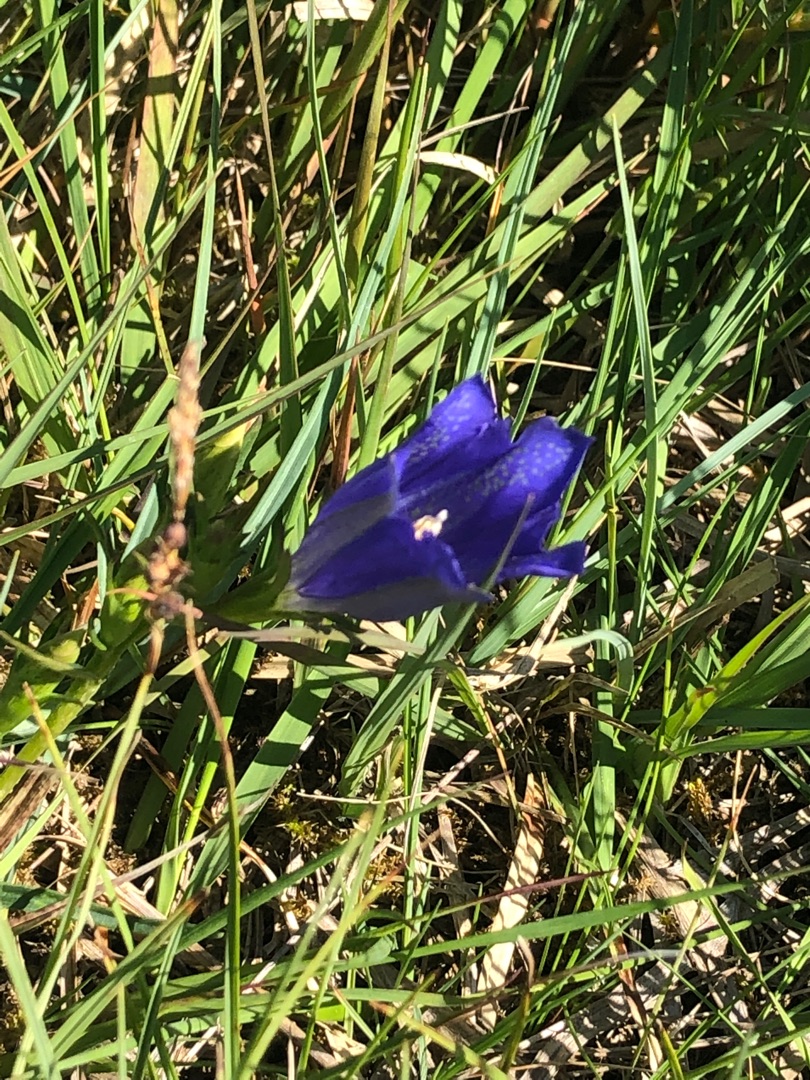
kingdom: Plantae
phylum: Tracheophyta
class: Magnoliopsida
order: Gentianales
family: Gentianaceae
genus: Gentiana
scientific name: Gentiana pneumonanthe
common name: Klokke-ensian
